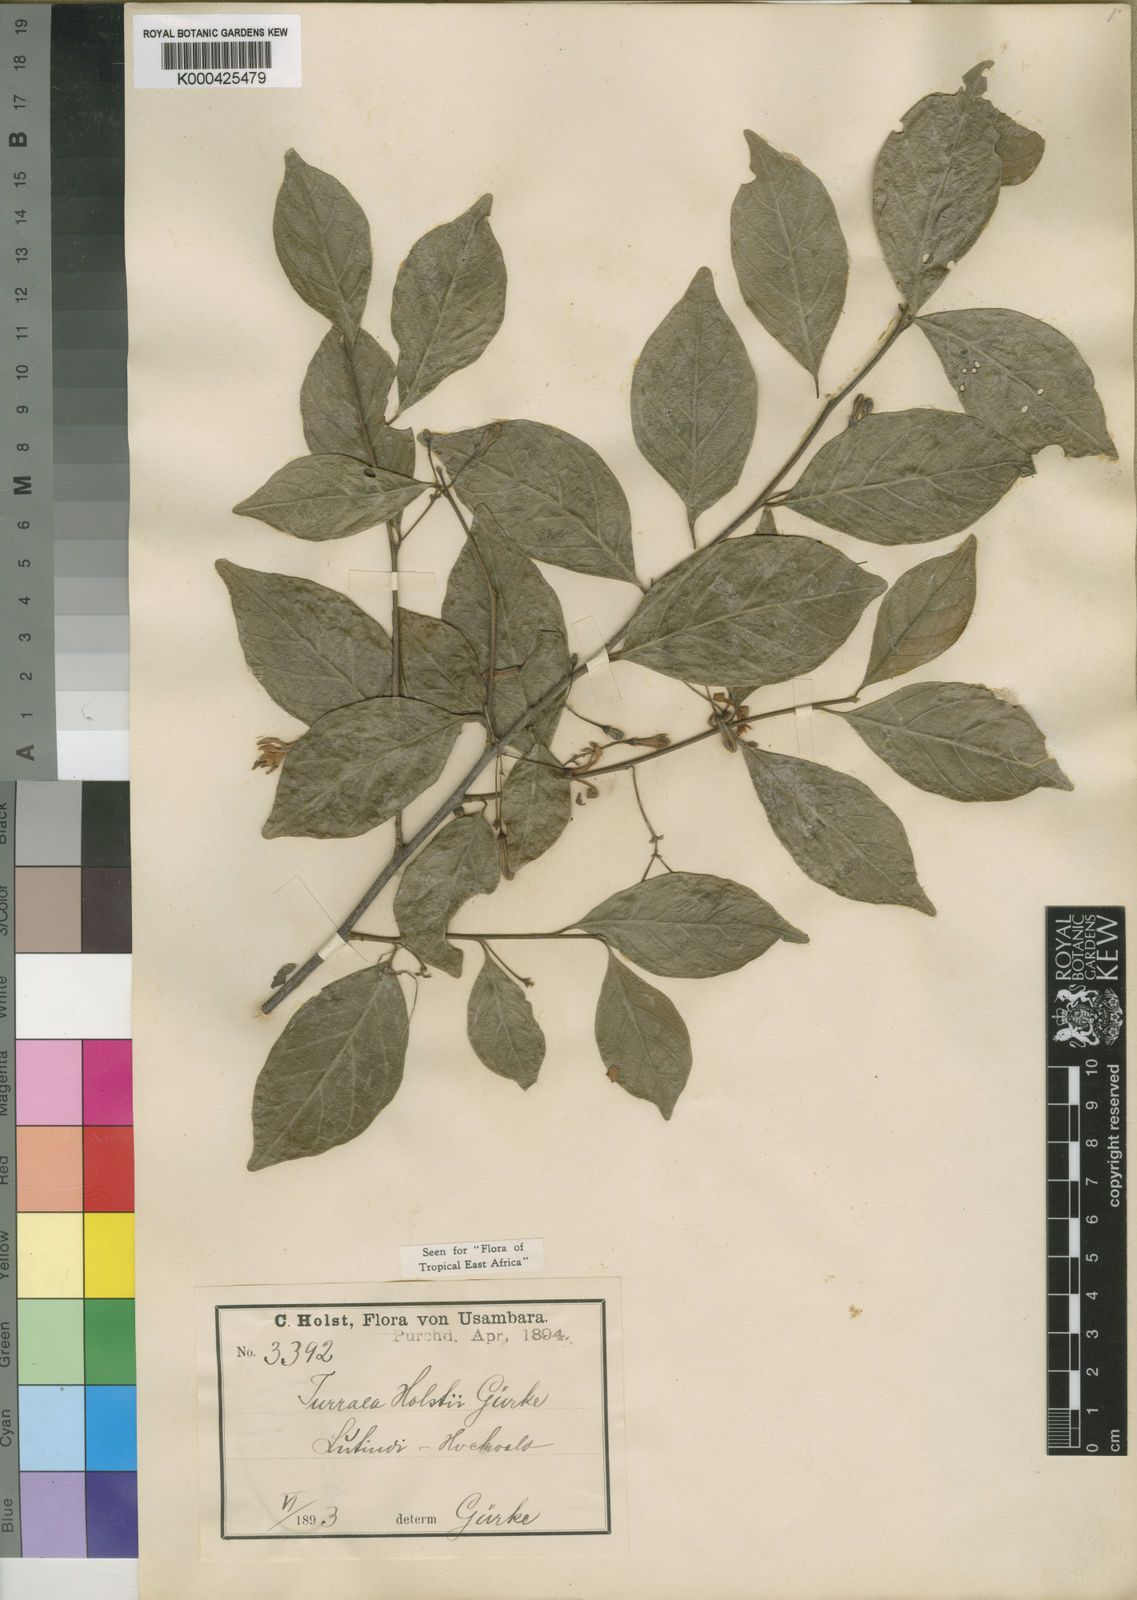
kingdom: Plantae
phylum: Tracheophyta
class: Magnoliopsida
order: Sapindales
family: Meliaceae
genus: Turraea
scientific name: Turraea
